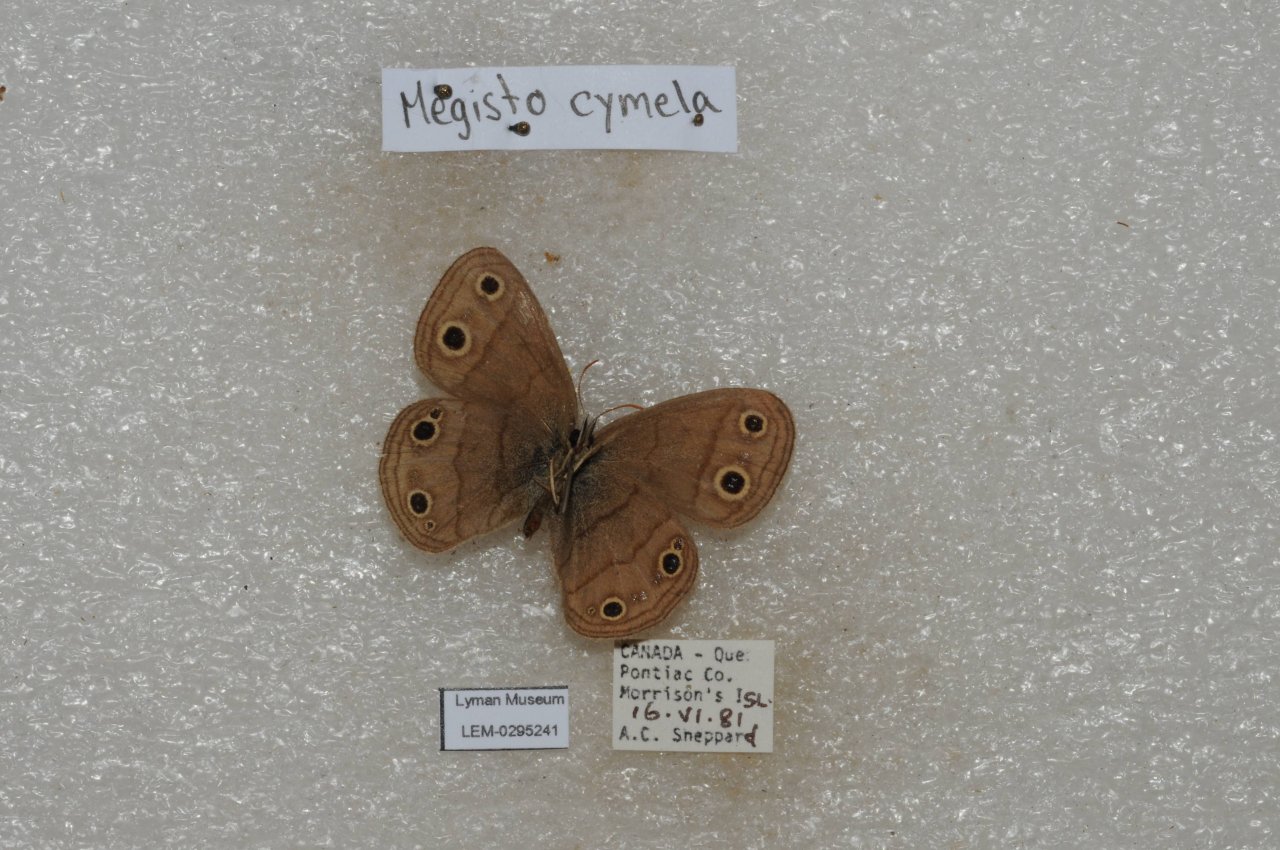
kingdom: Animalia
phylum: Arthropoda
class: Insecta
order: Lepidoptera
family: Nymphalidae
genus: Euptychia
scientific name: Euptychia cymela
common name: Little Wood Satyr
